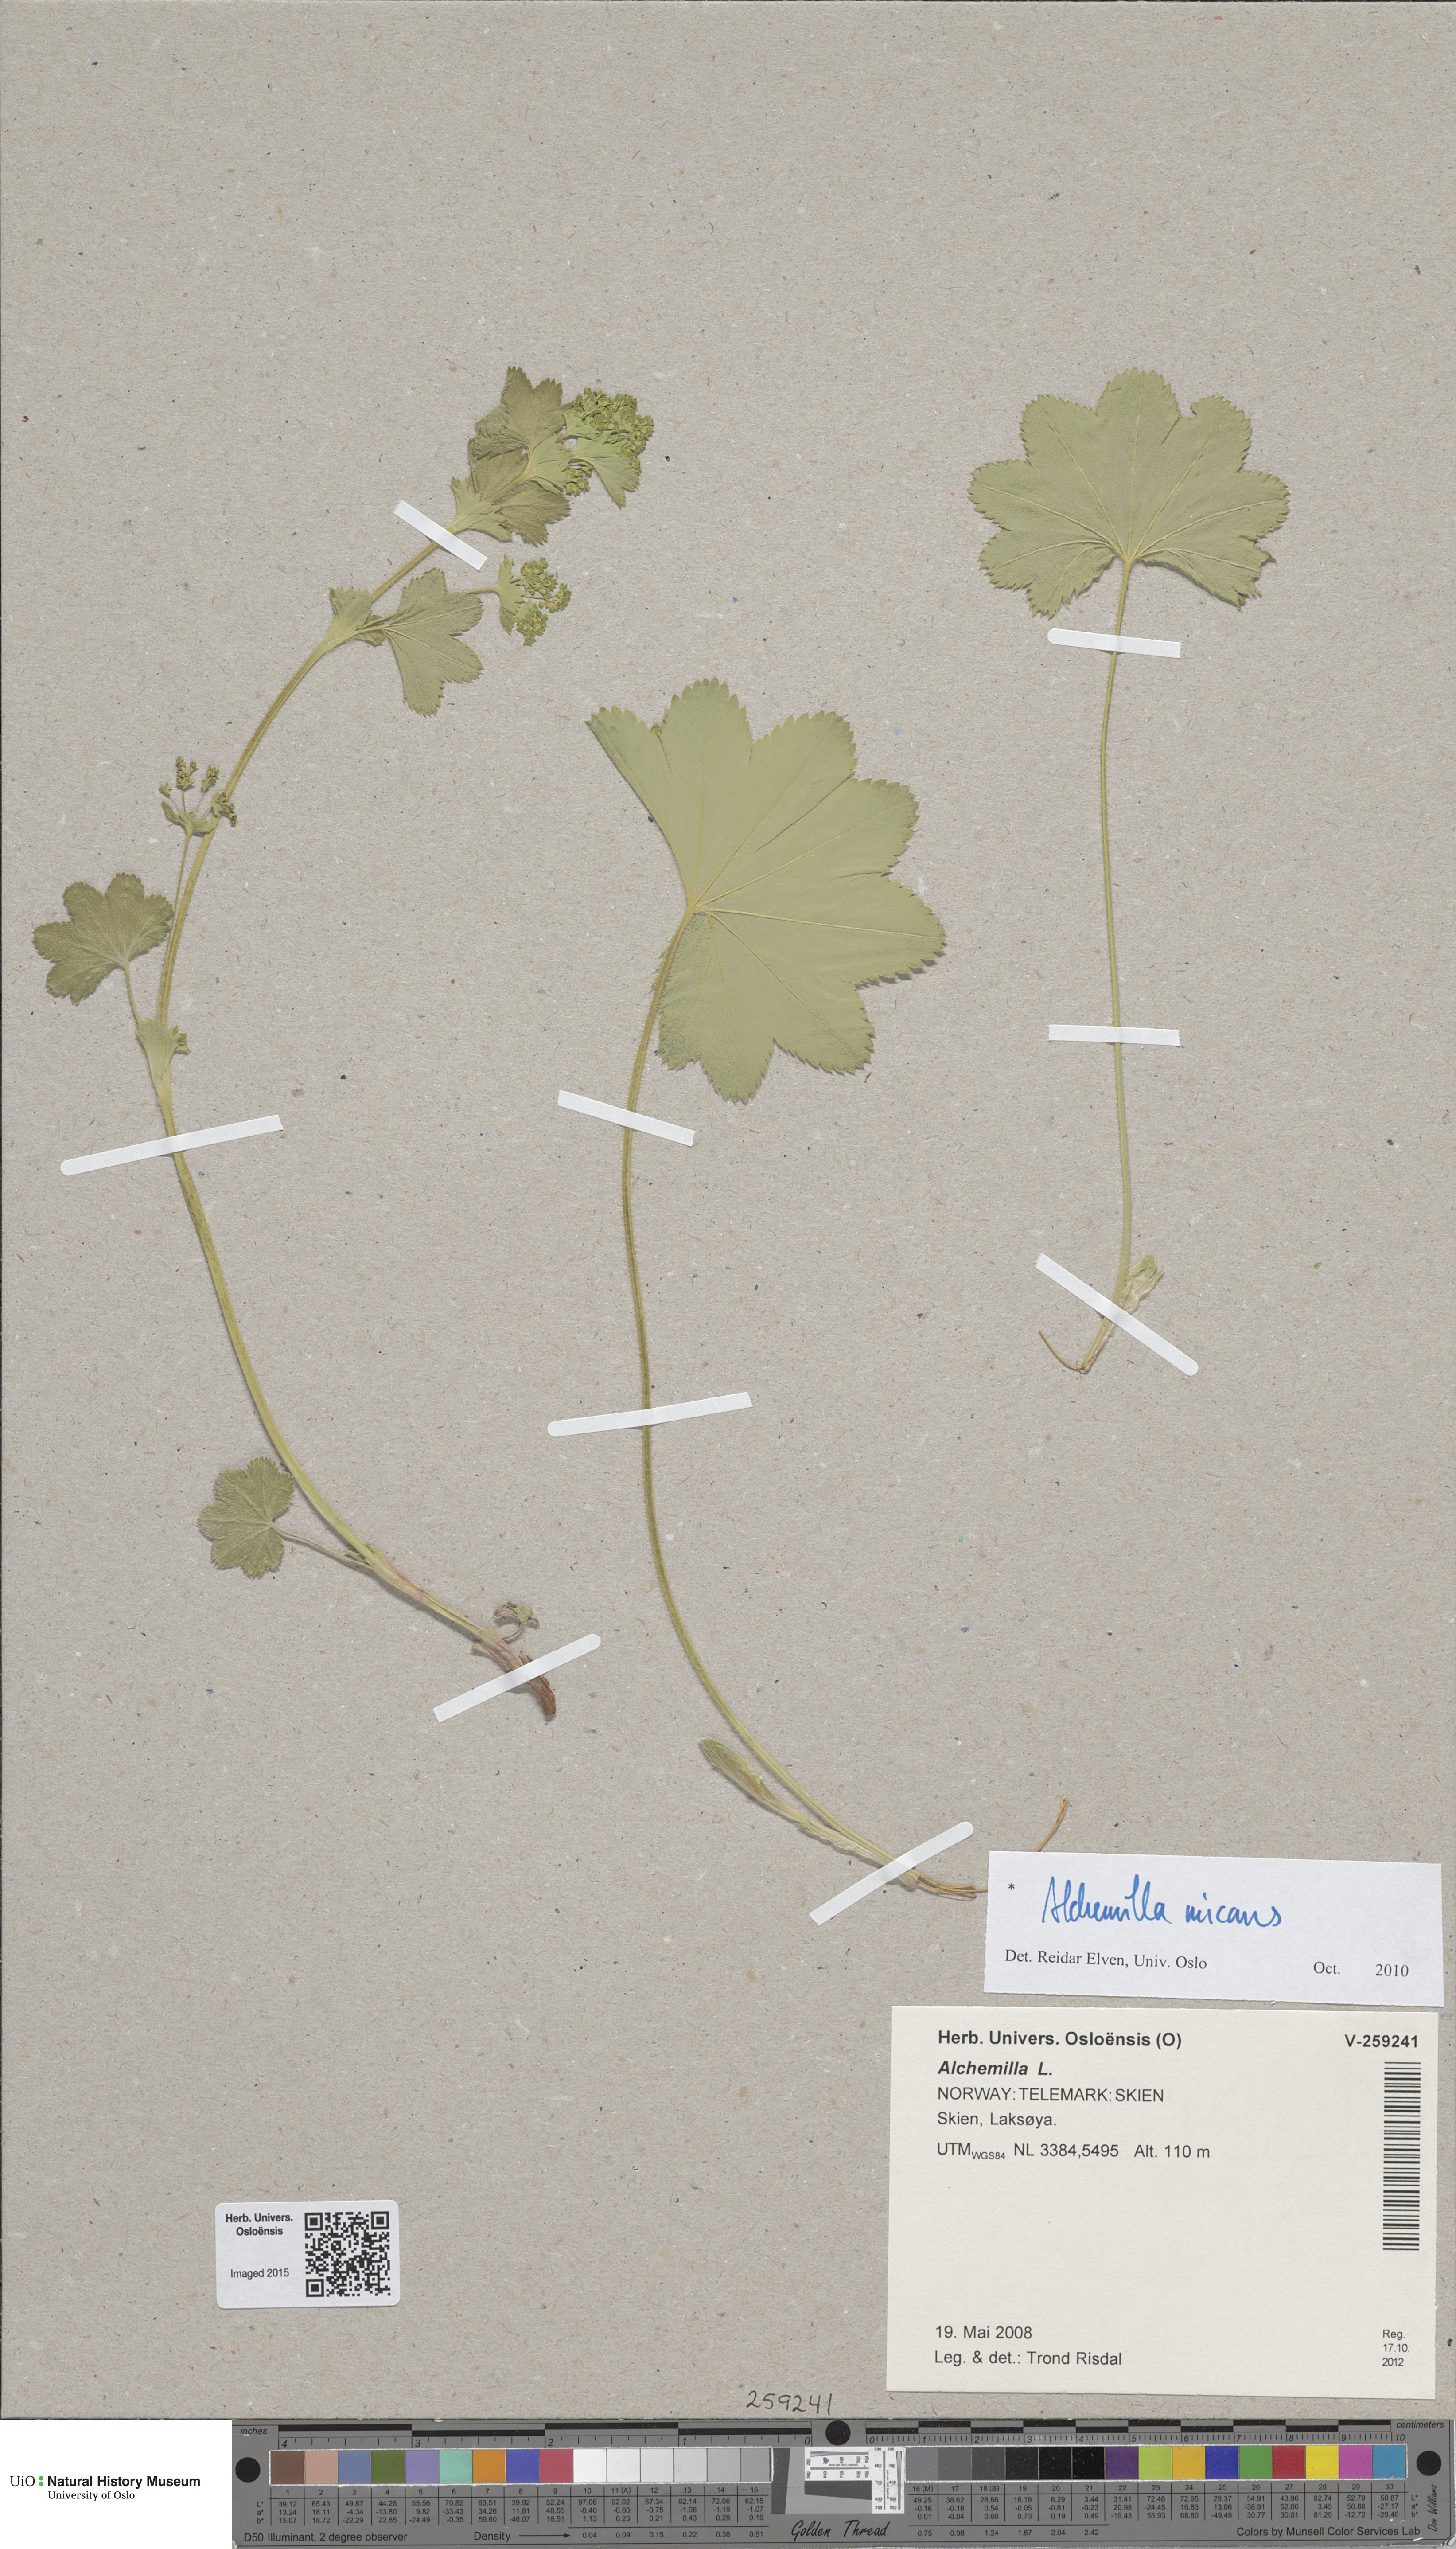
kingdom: Plantae
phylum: Tracheophyta
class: Magnoliopsida
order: Rosales
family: Rosaceae
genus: Alchemilla
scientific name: Alchemilla micans
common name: Gleaming lady's mantle
